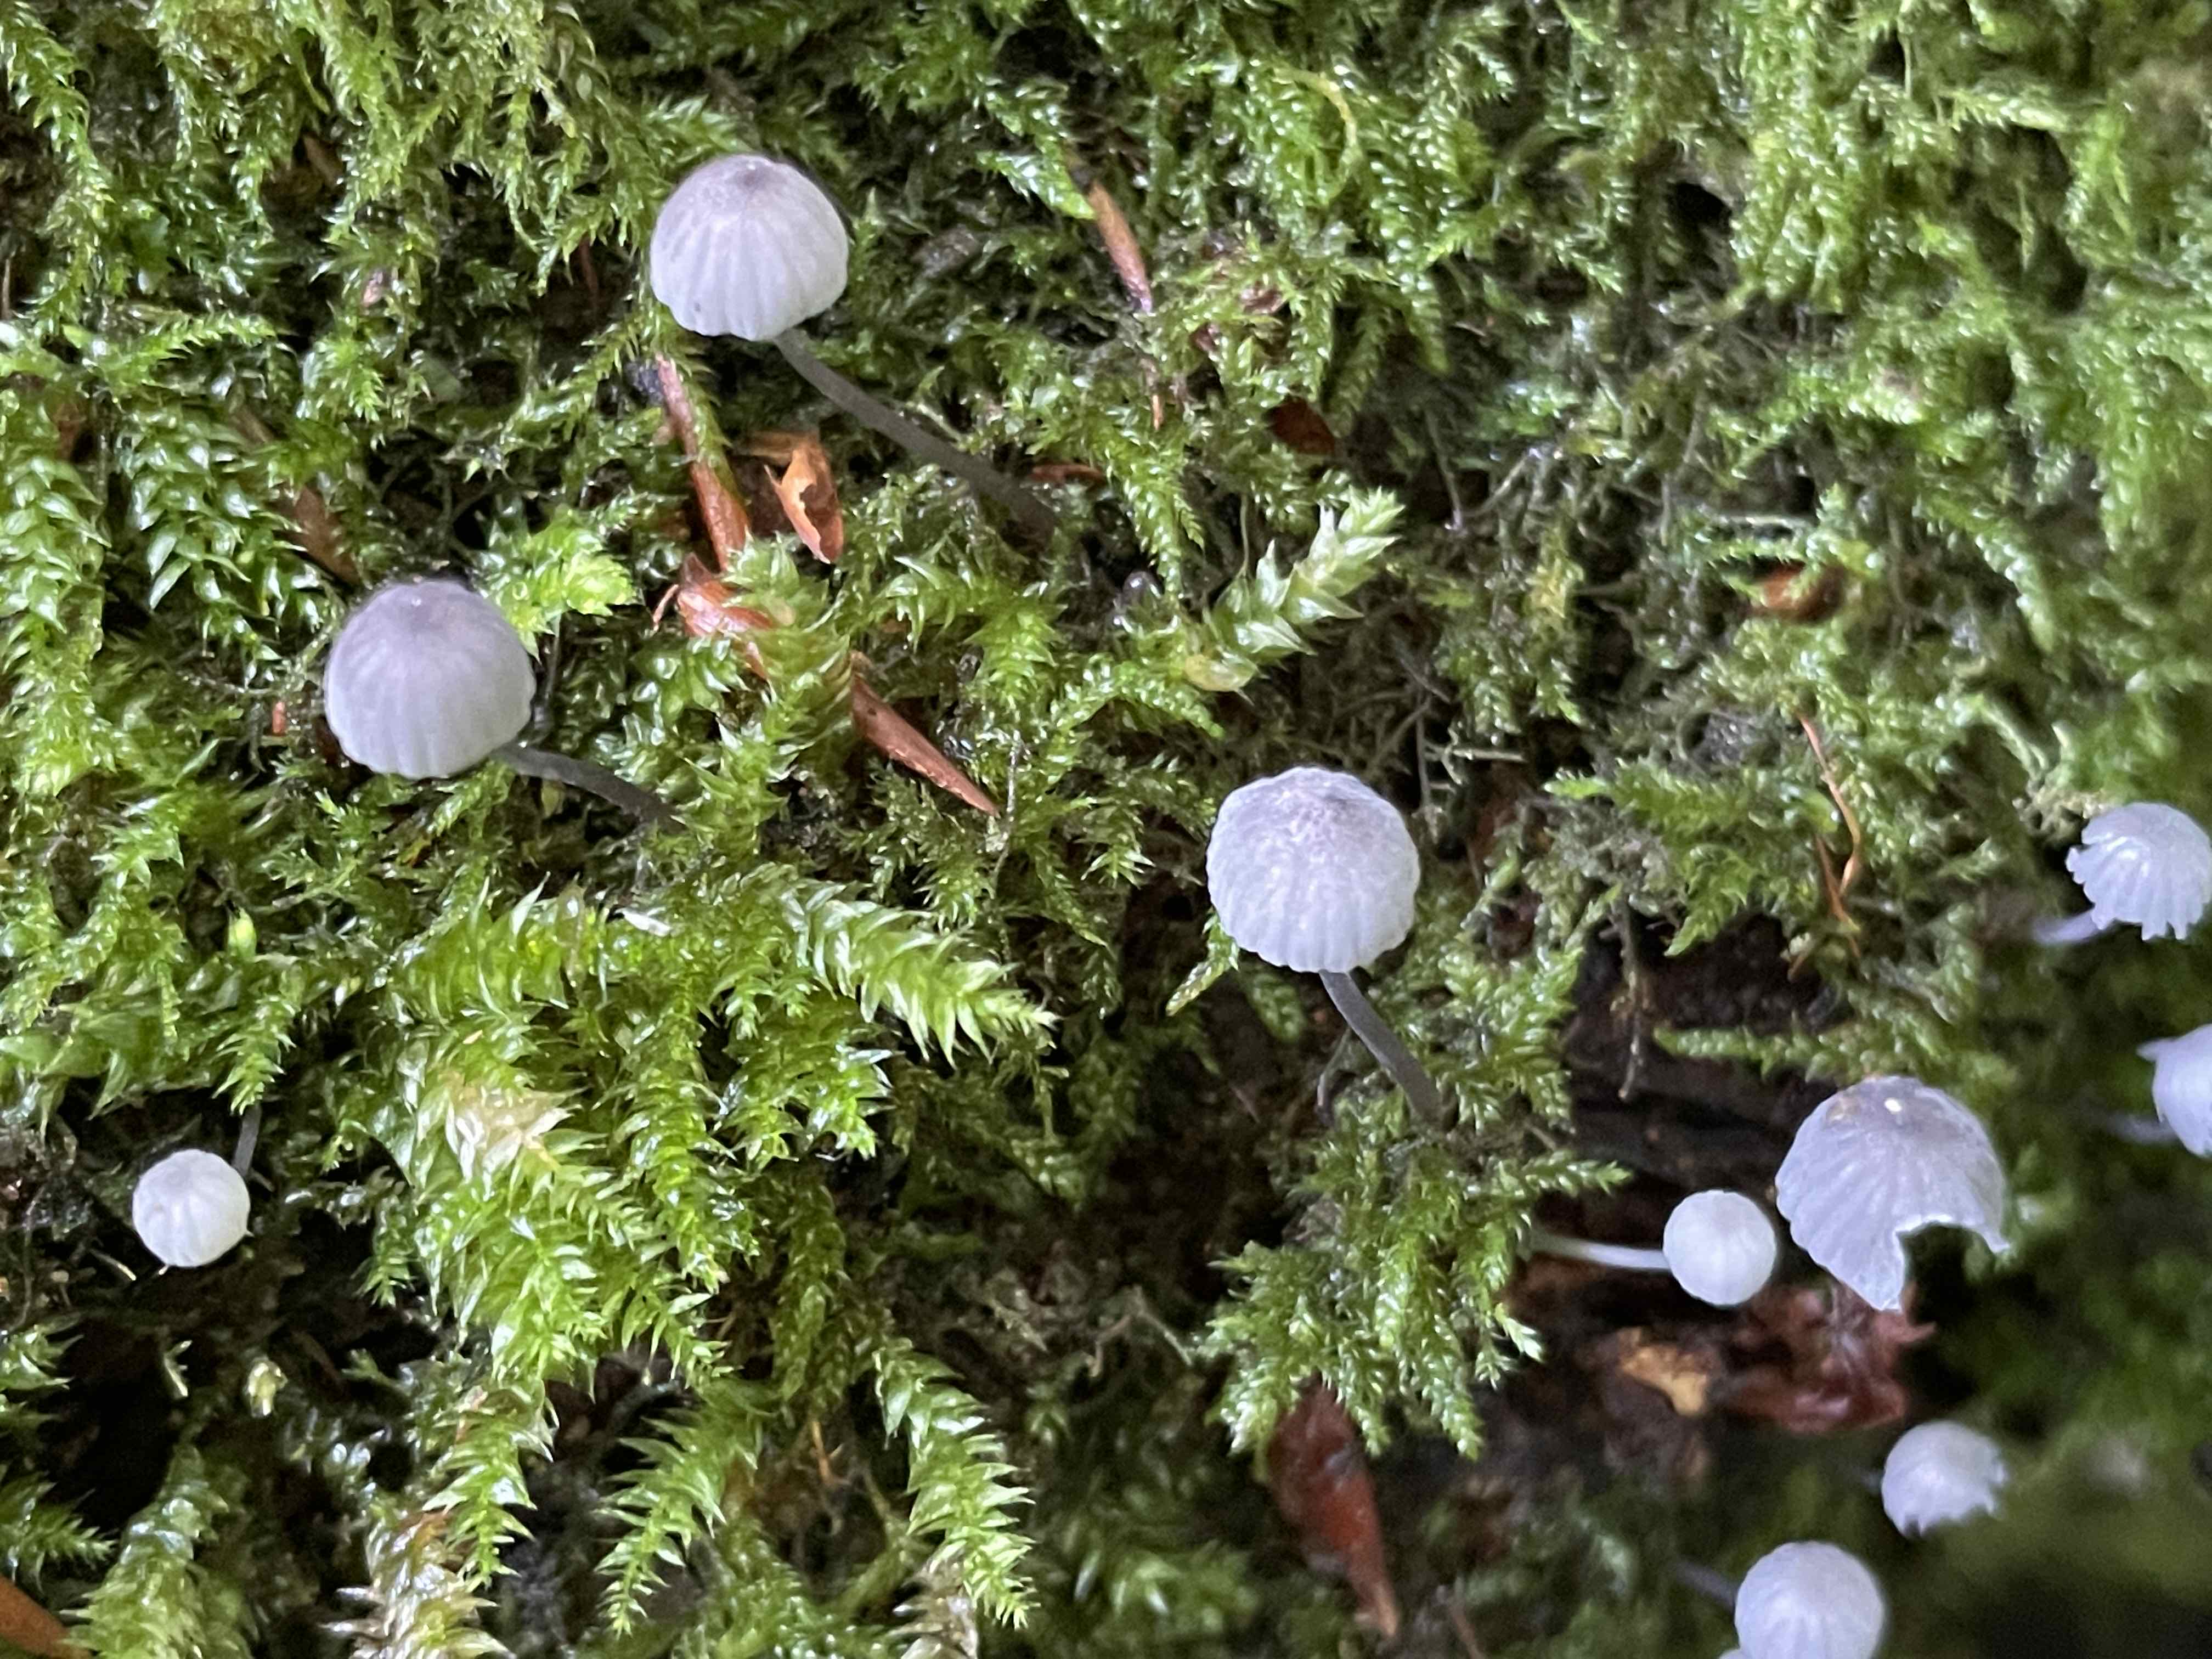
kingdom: Fungi
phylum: Basidiomycota
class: Agaricomycetes
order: Agaricales
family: Mycenaceae
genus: Mycena
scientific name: Mycena pseudocorticola
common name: gråblå bark-huesvamp
